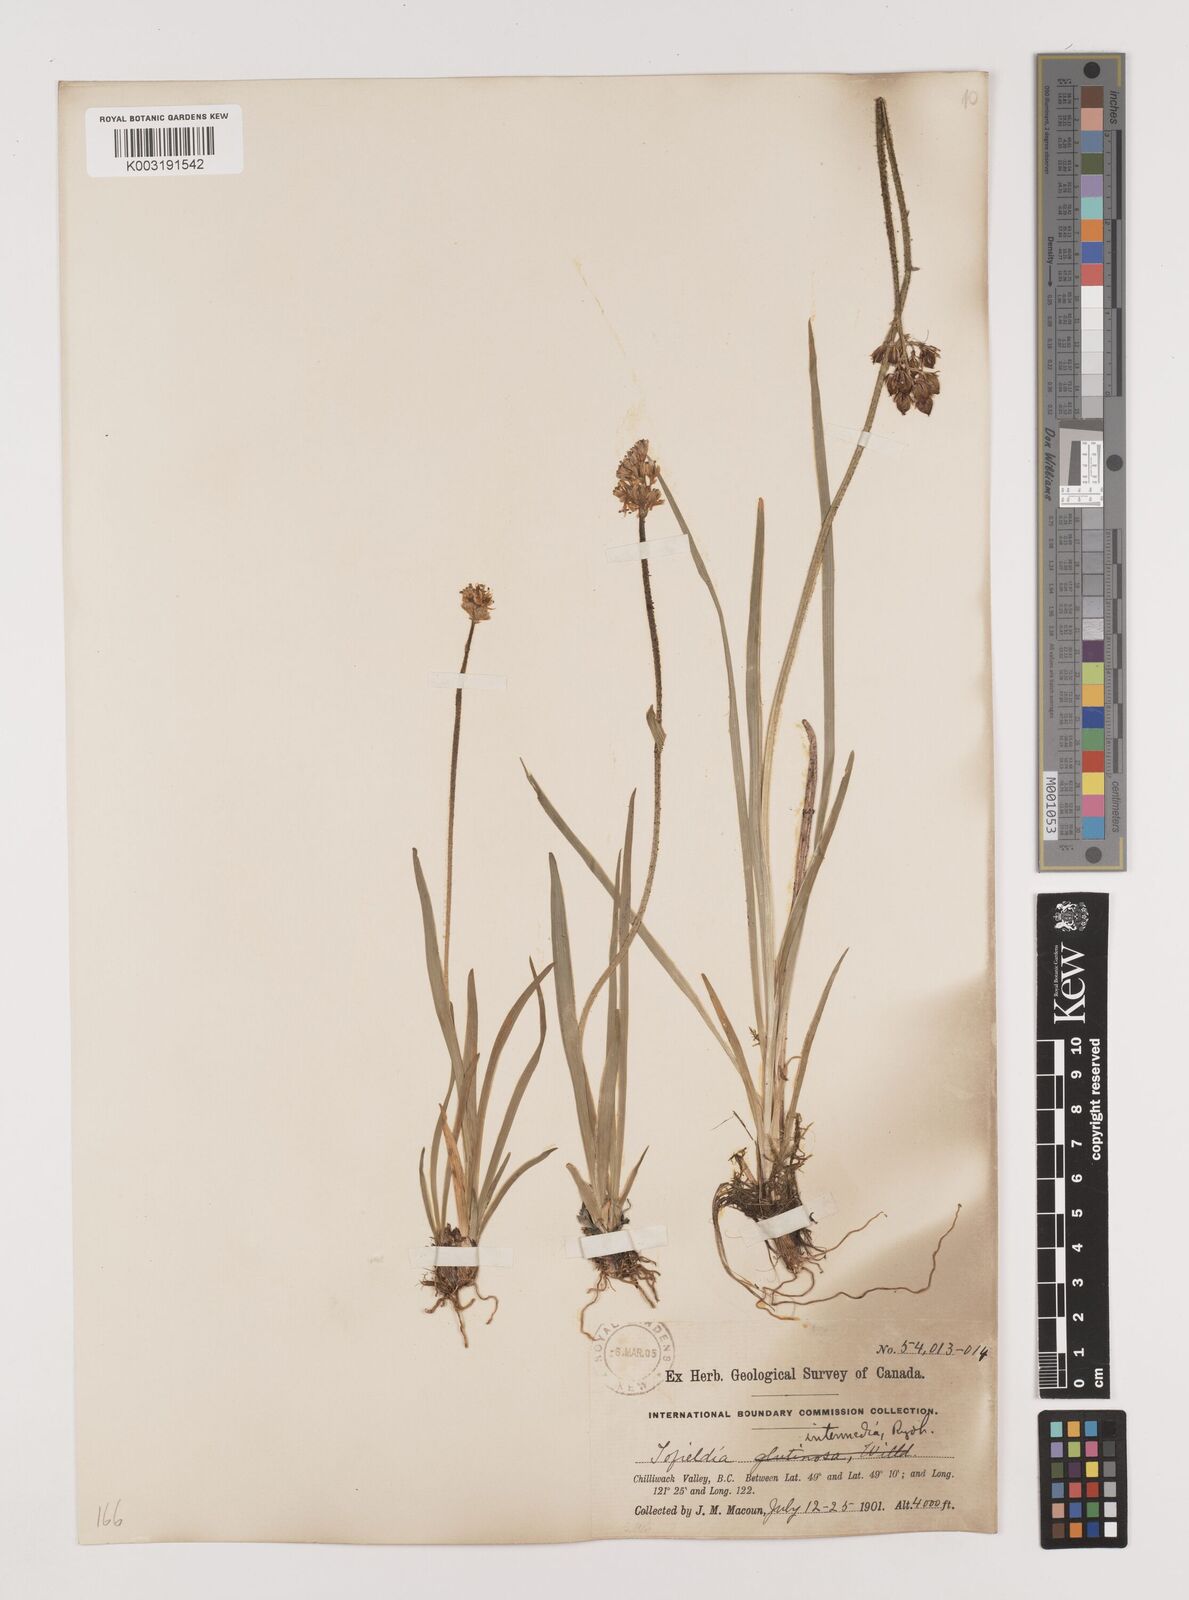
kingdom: Plantae
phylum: Tracheophyta
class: Liliopsida
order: Alismatales
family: Tofieldiaceae
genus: Triantha
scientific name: Triantha occidentalis
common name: Western false asphodel
